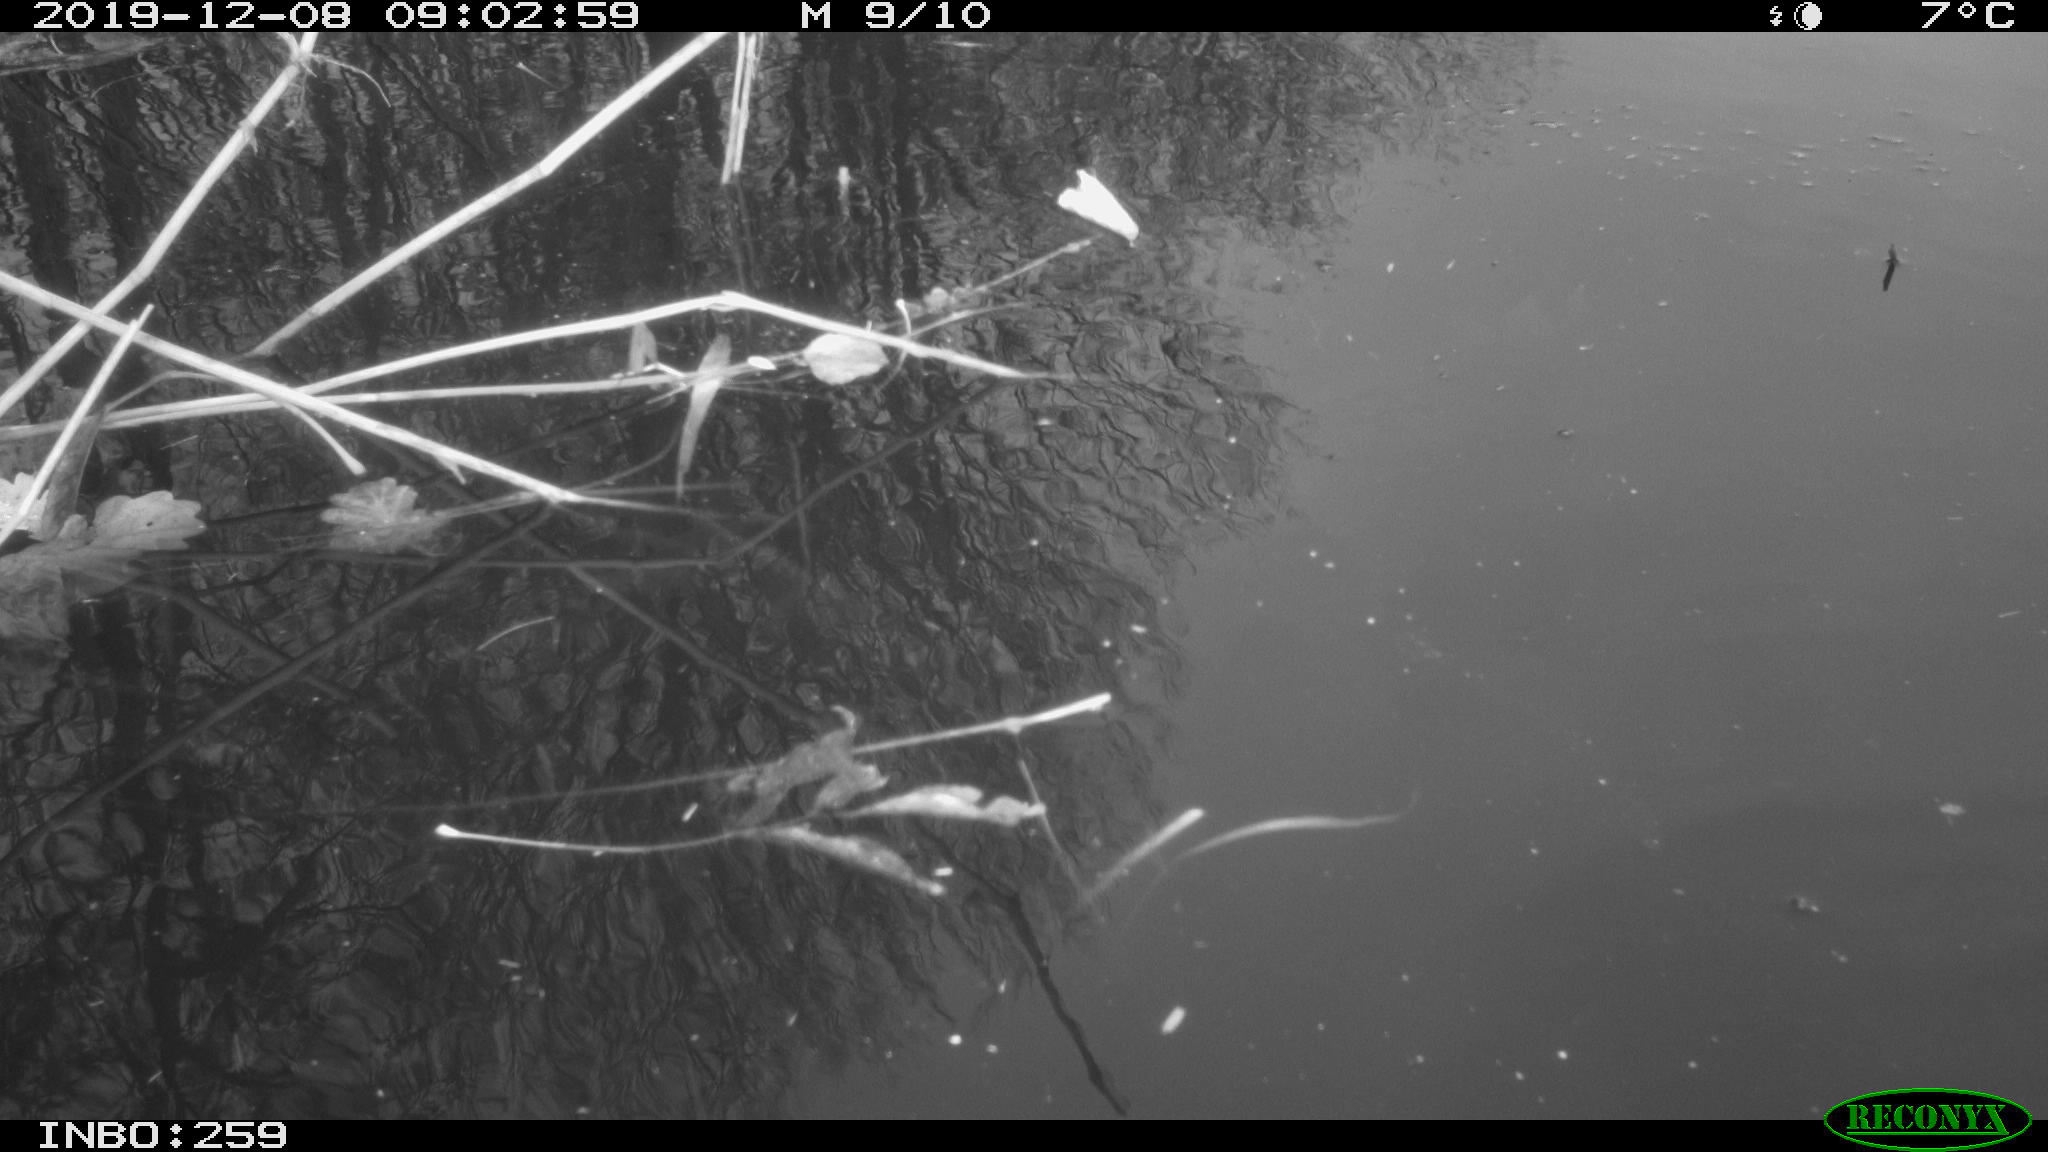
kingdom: Animalia
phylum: Chordata
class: Aves
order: Gruiformes
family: Rallidae
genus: Gallinula
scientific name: Gallinula chloropus
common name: Common moorhen
